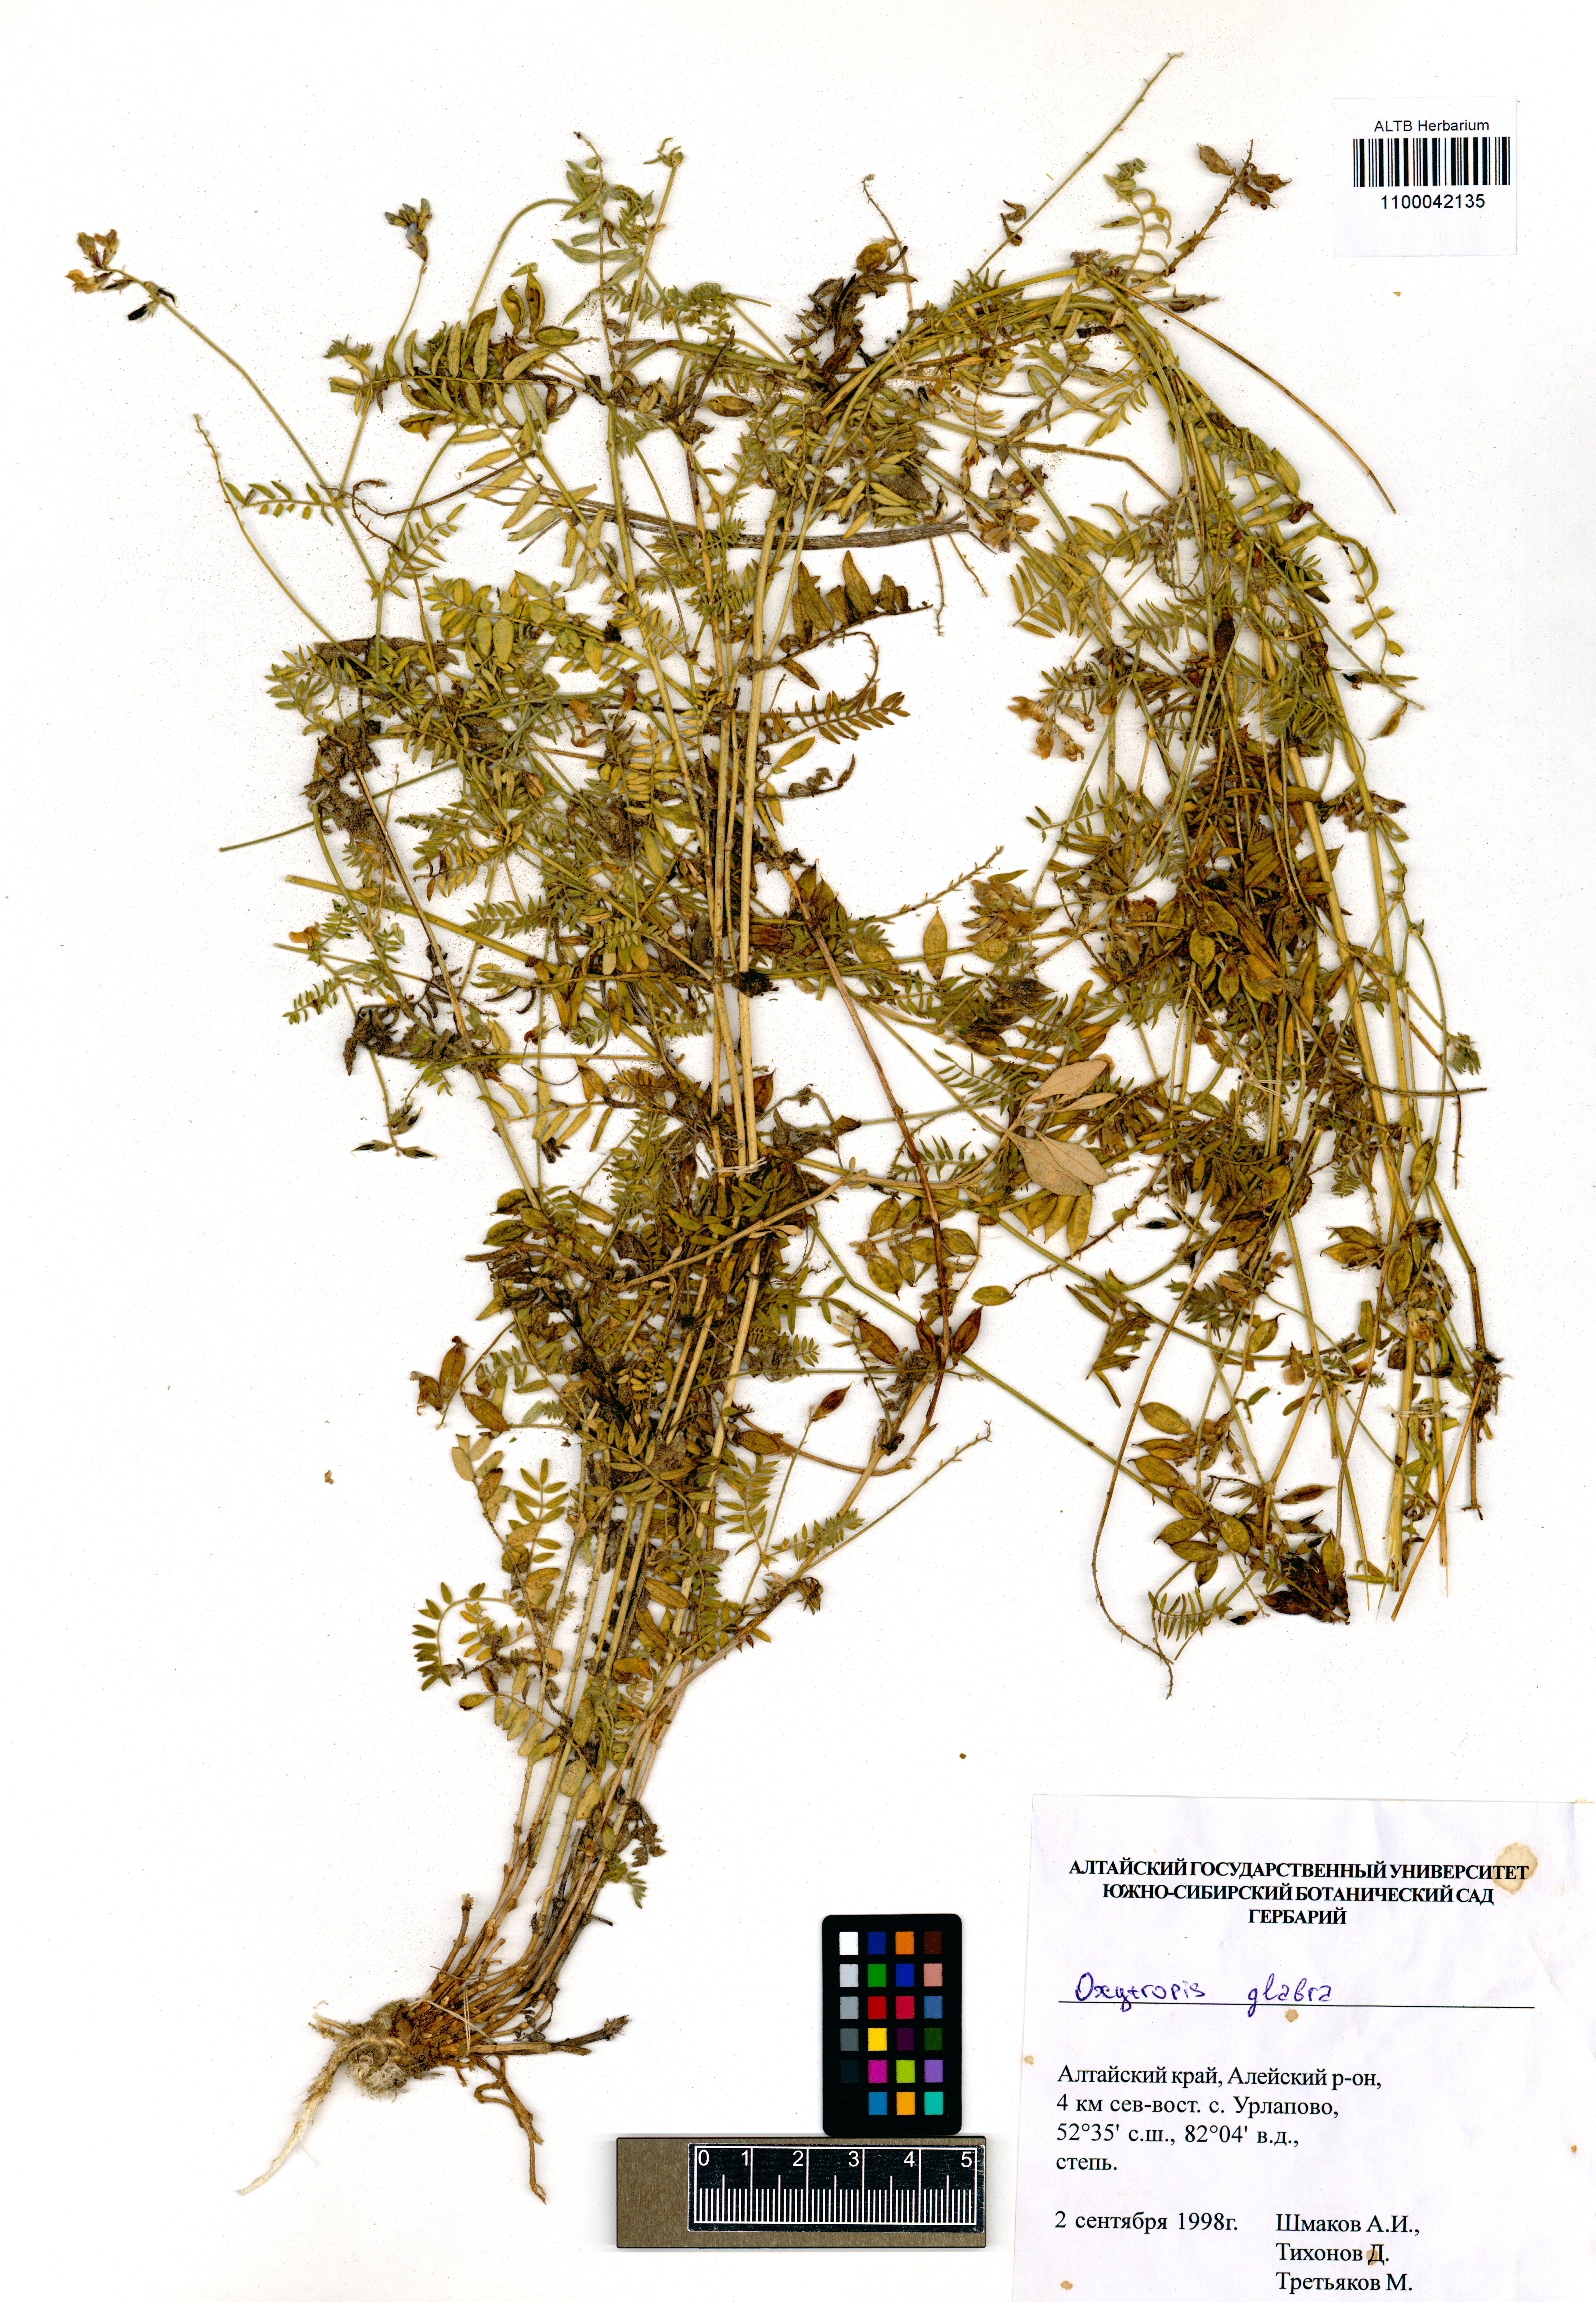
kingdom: Plantae
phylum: Tracheophyta
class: Magnoliopsida
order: Fabales
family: Fabaceae
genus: Oxytropis
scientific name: Oxytropis glabra
